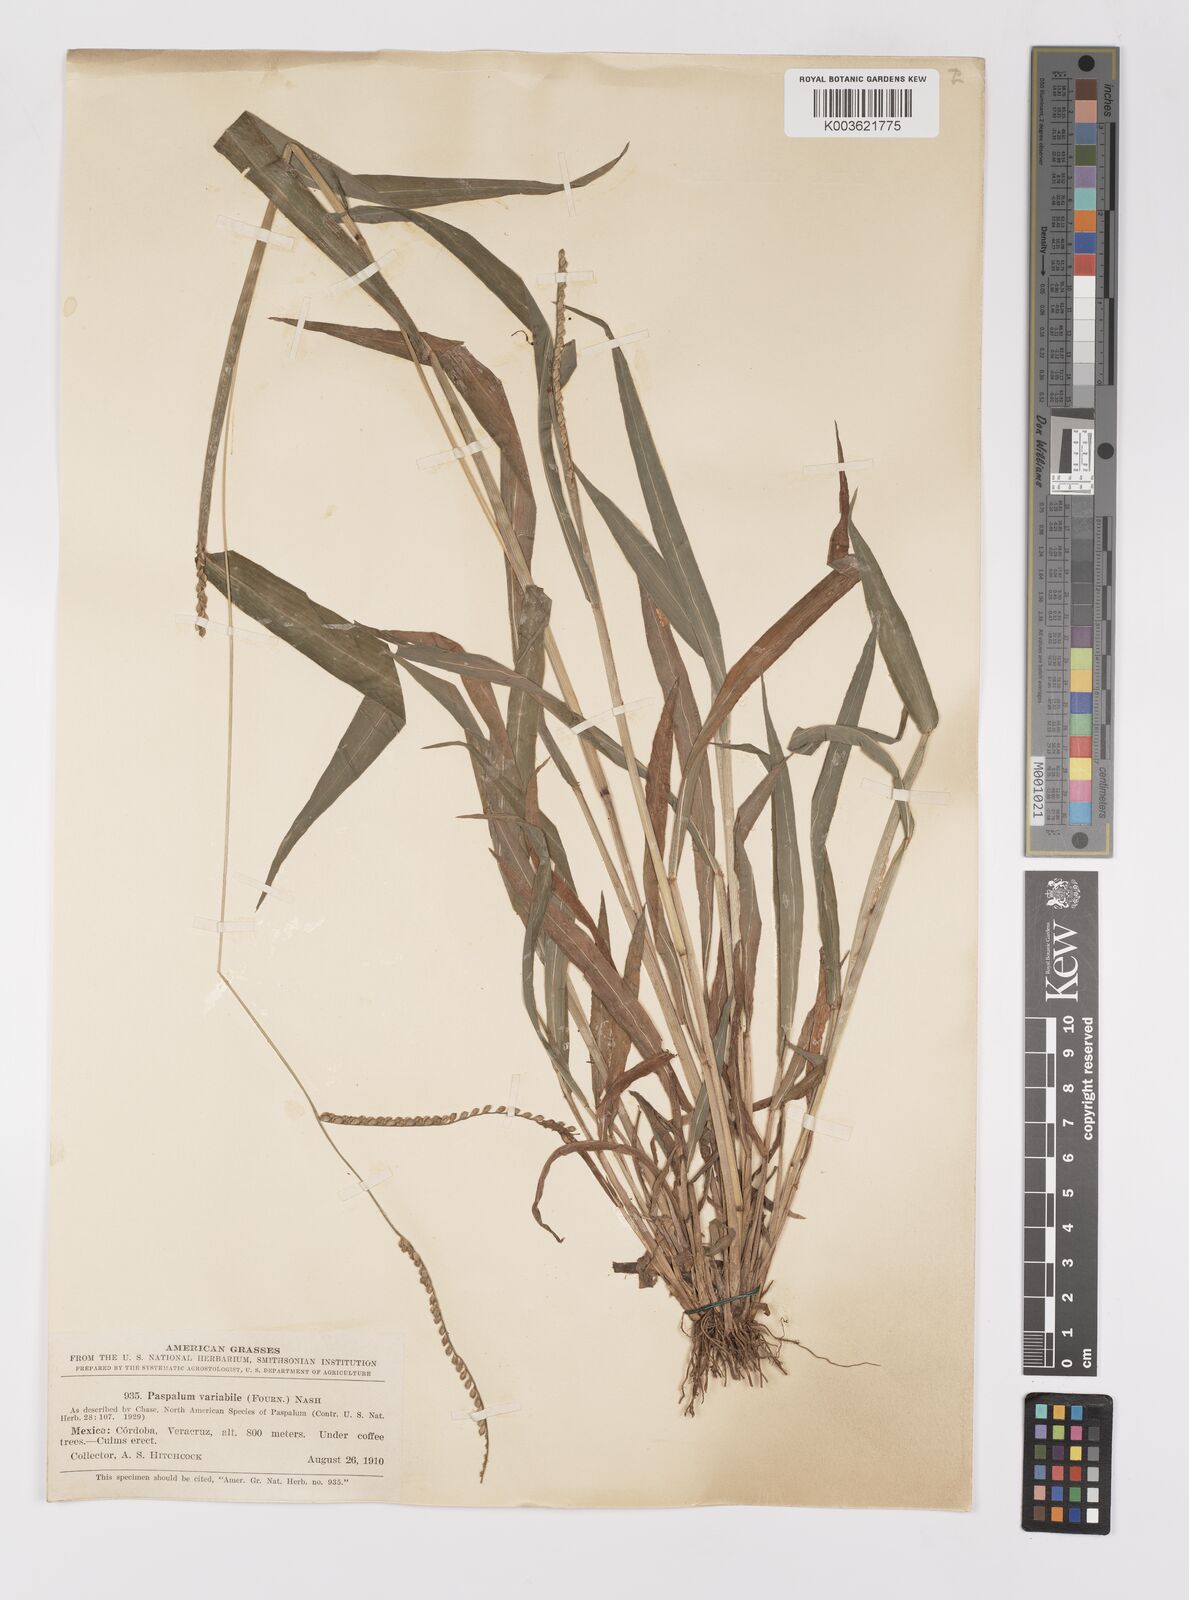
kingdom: Plantae
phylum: Tracheophyta
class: Liliopsida
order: Poales
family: Poaceae
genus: Paspalum
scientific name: Paspalum variabile
